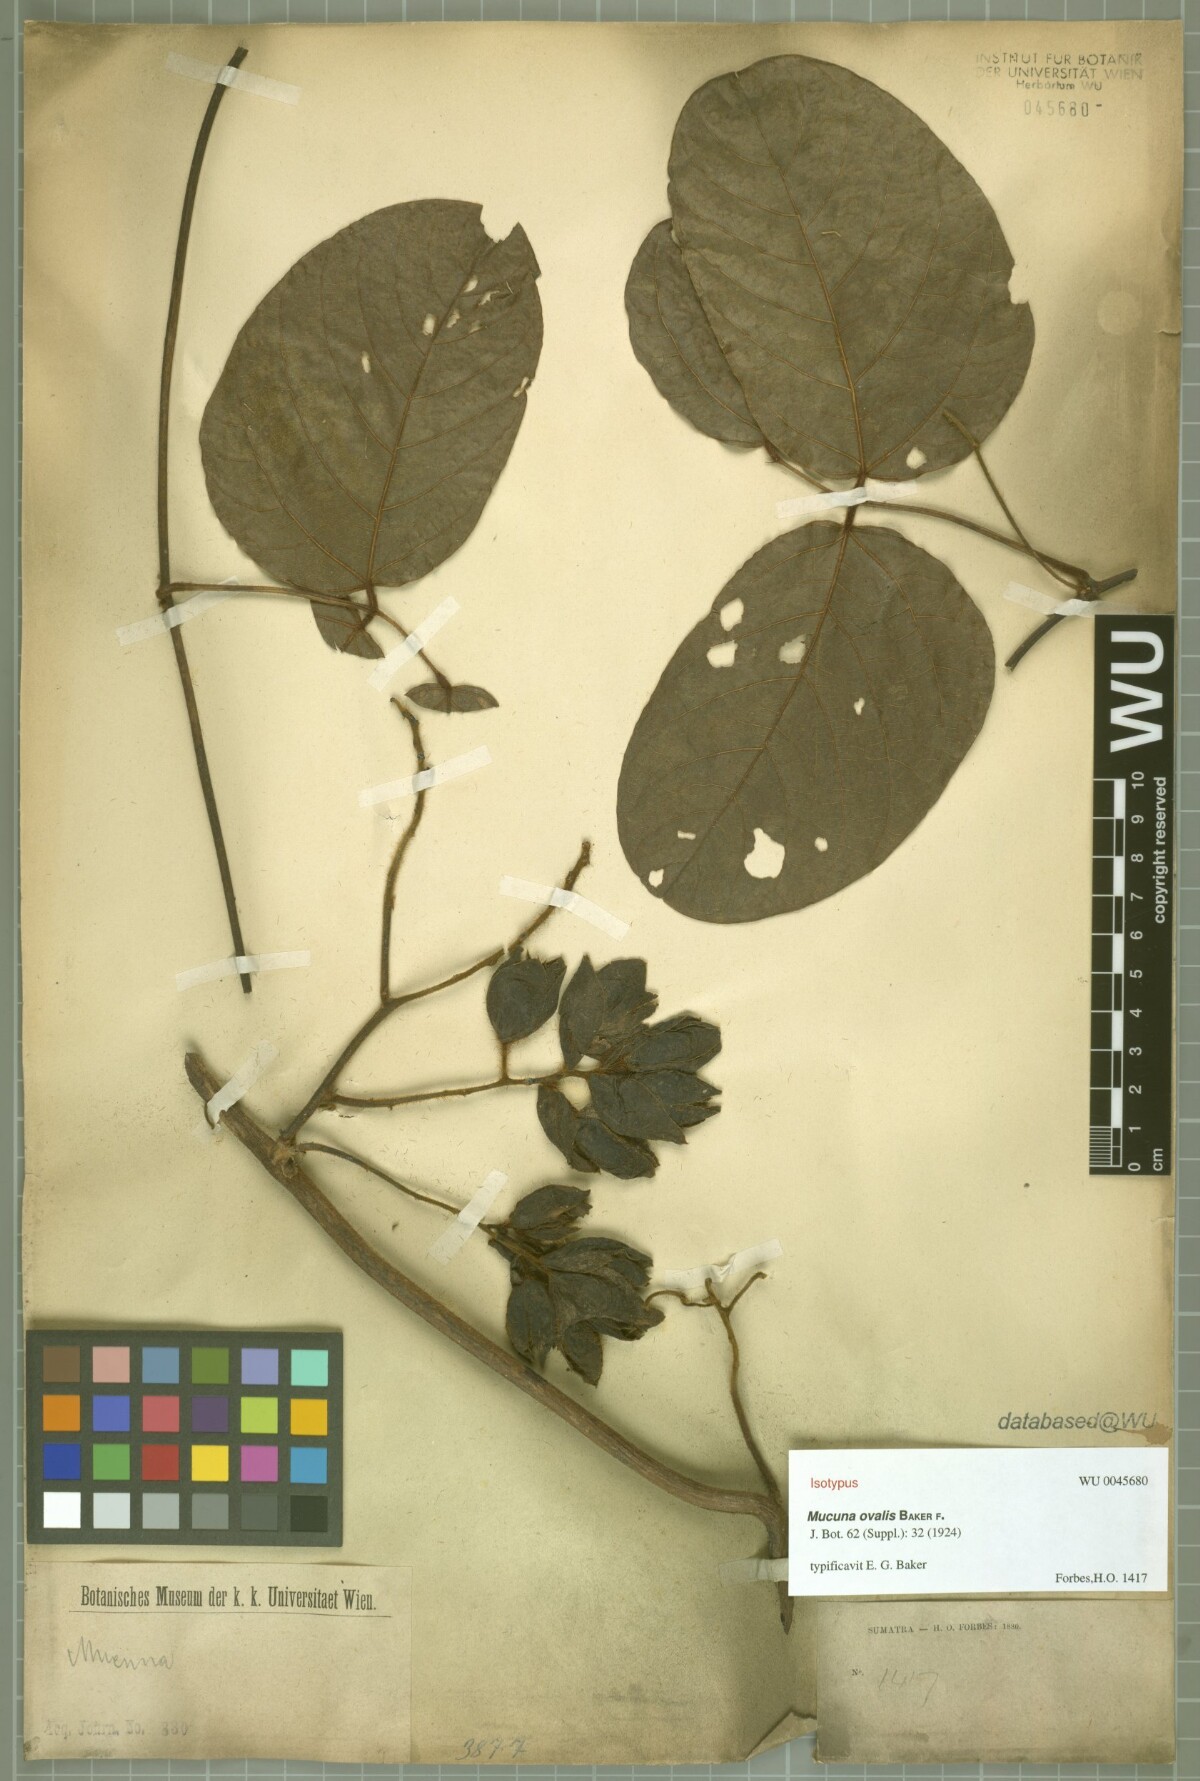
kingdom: Plantae
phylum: Tracheophyta
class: Magnoliopsida
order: Fabales
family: Fabaceae
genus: Mucuna
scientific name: Mucuna macrophylla
